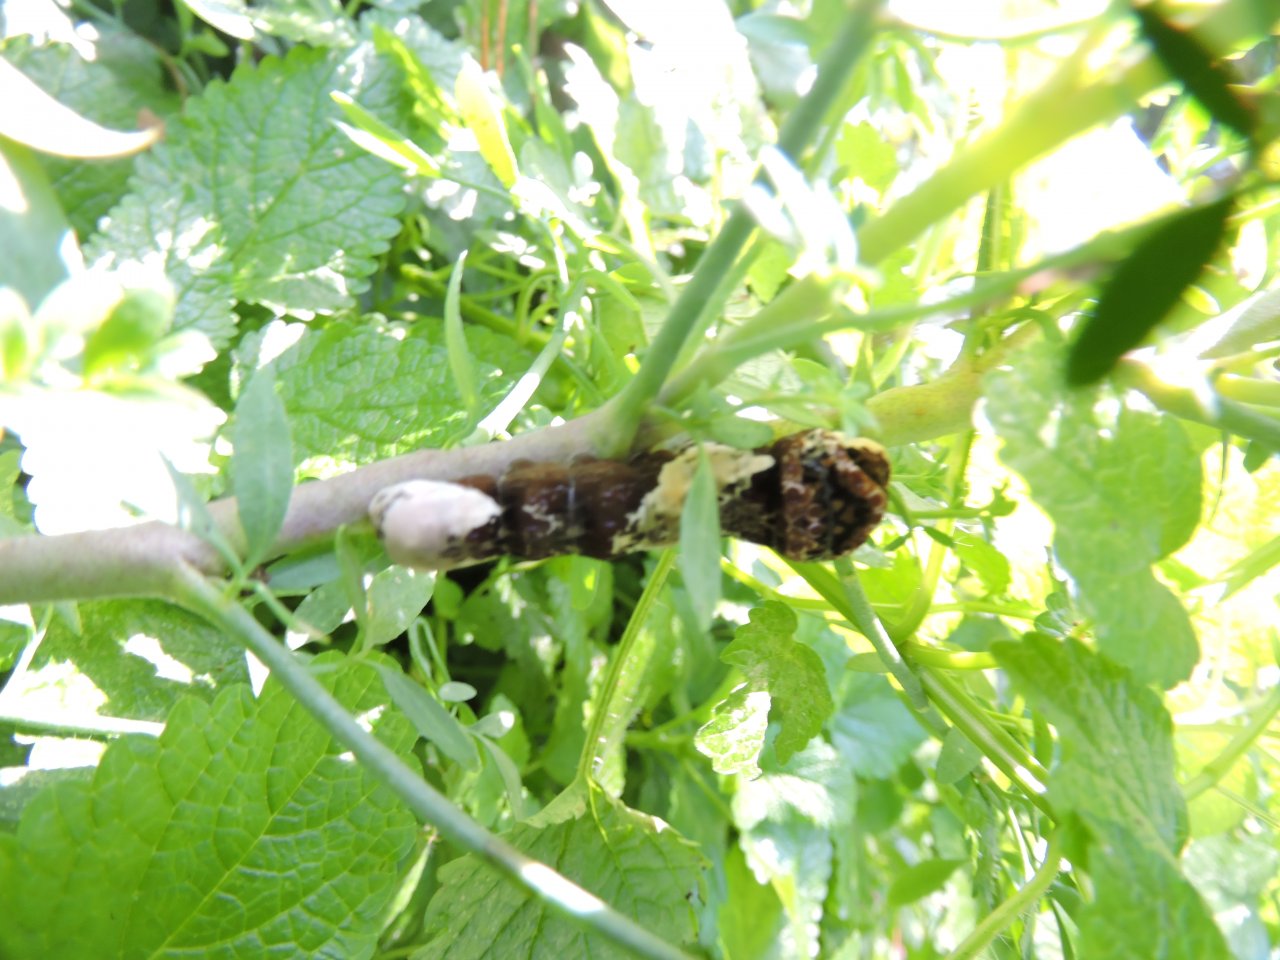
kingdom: Animalia
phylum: Arthropoda
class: Insecta
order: Lepidoptera
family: Papilionidae
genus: Papilio
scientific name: Papilio cresphontes
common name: Eastern Giant Swallowtail
